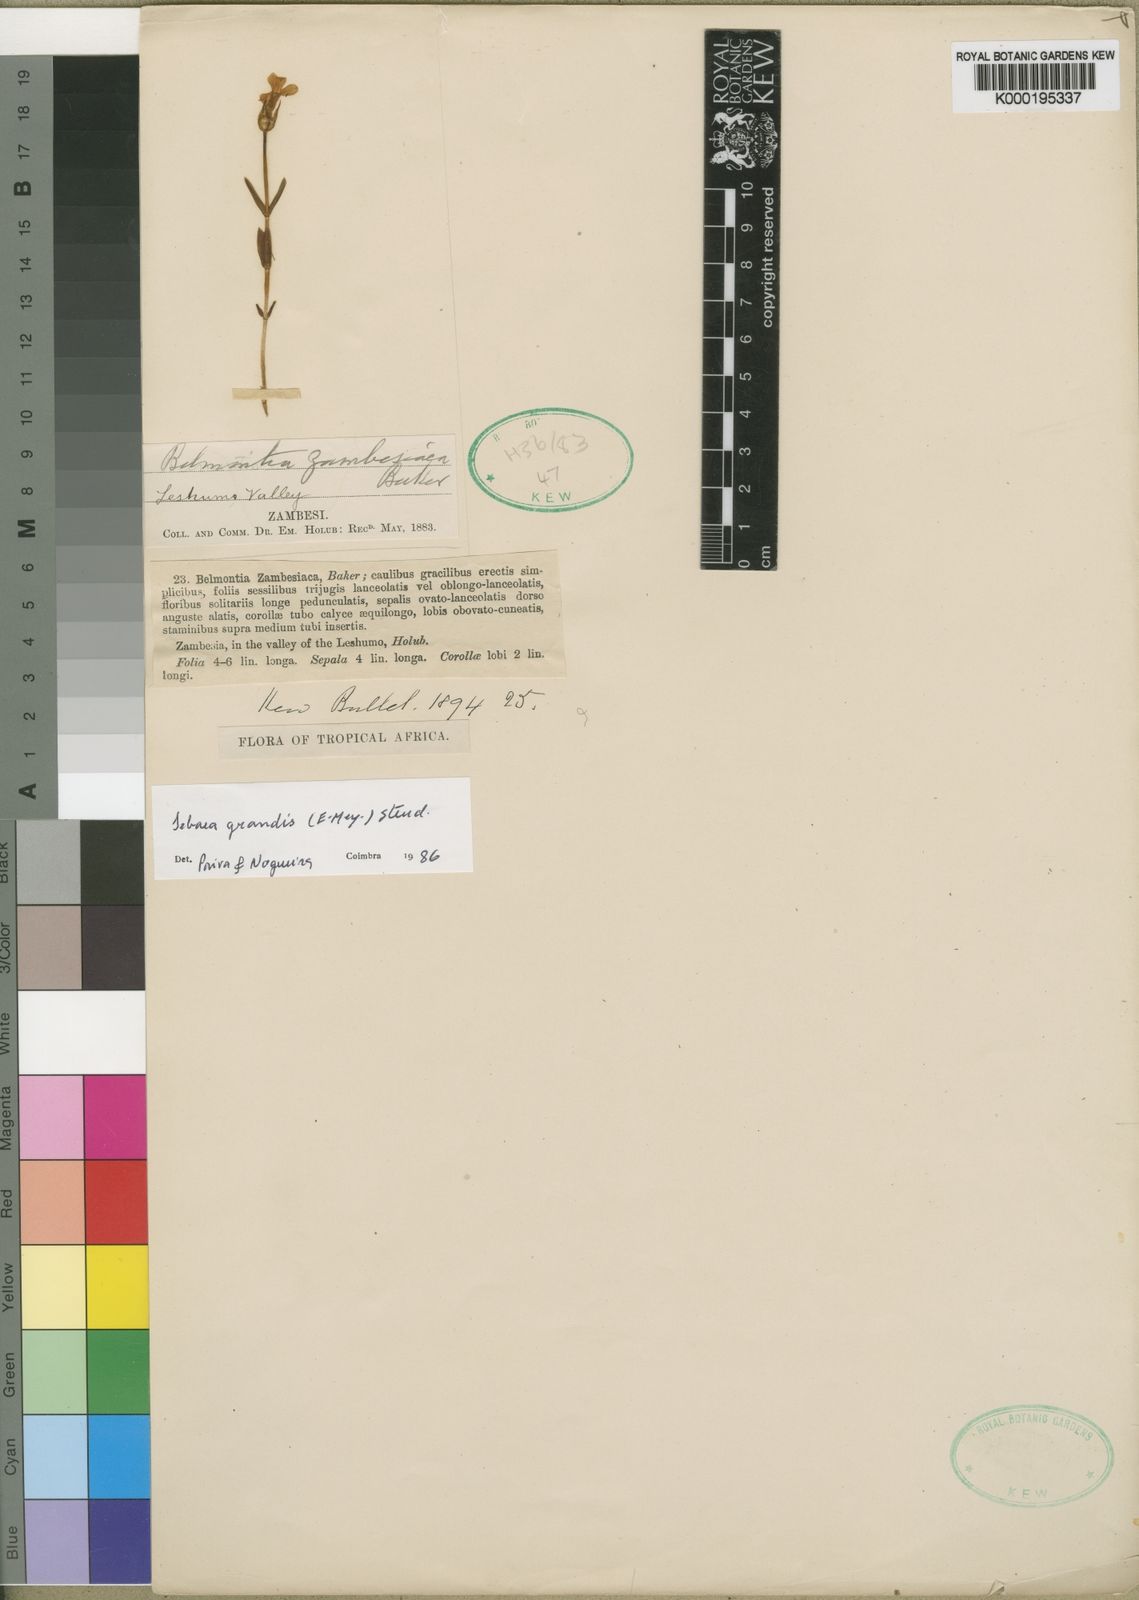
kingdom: Plantae
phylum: Tracheophyta
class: Magnoliopsida
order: Gentianales
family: Gentianaceae
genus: Exochaenium
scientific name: Exochaenium grande
